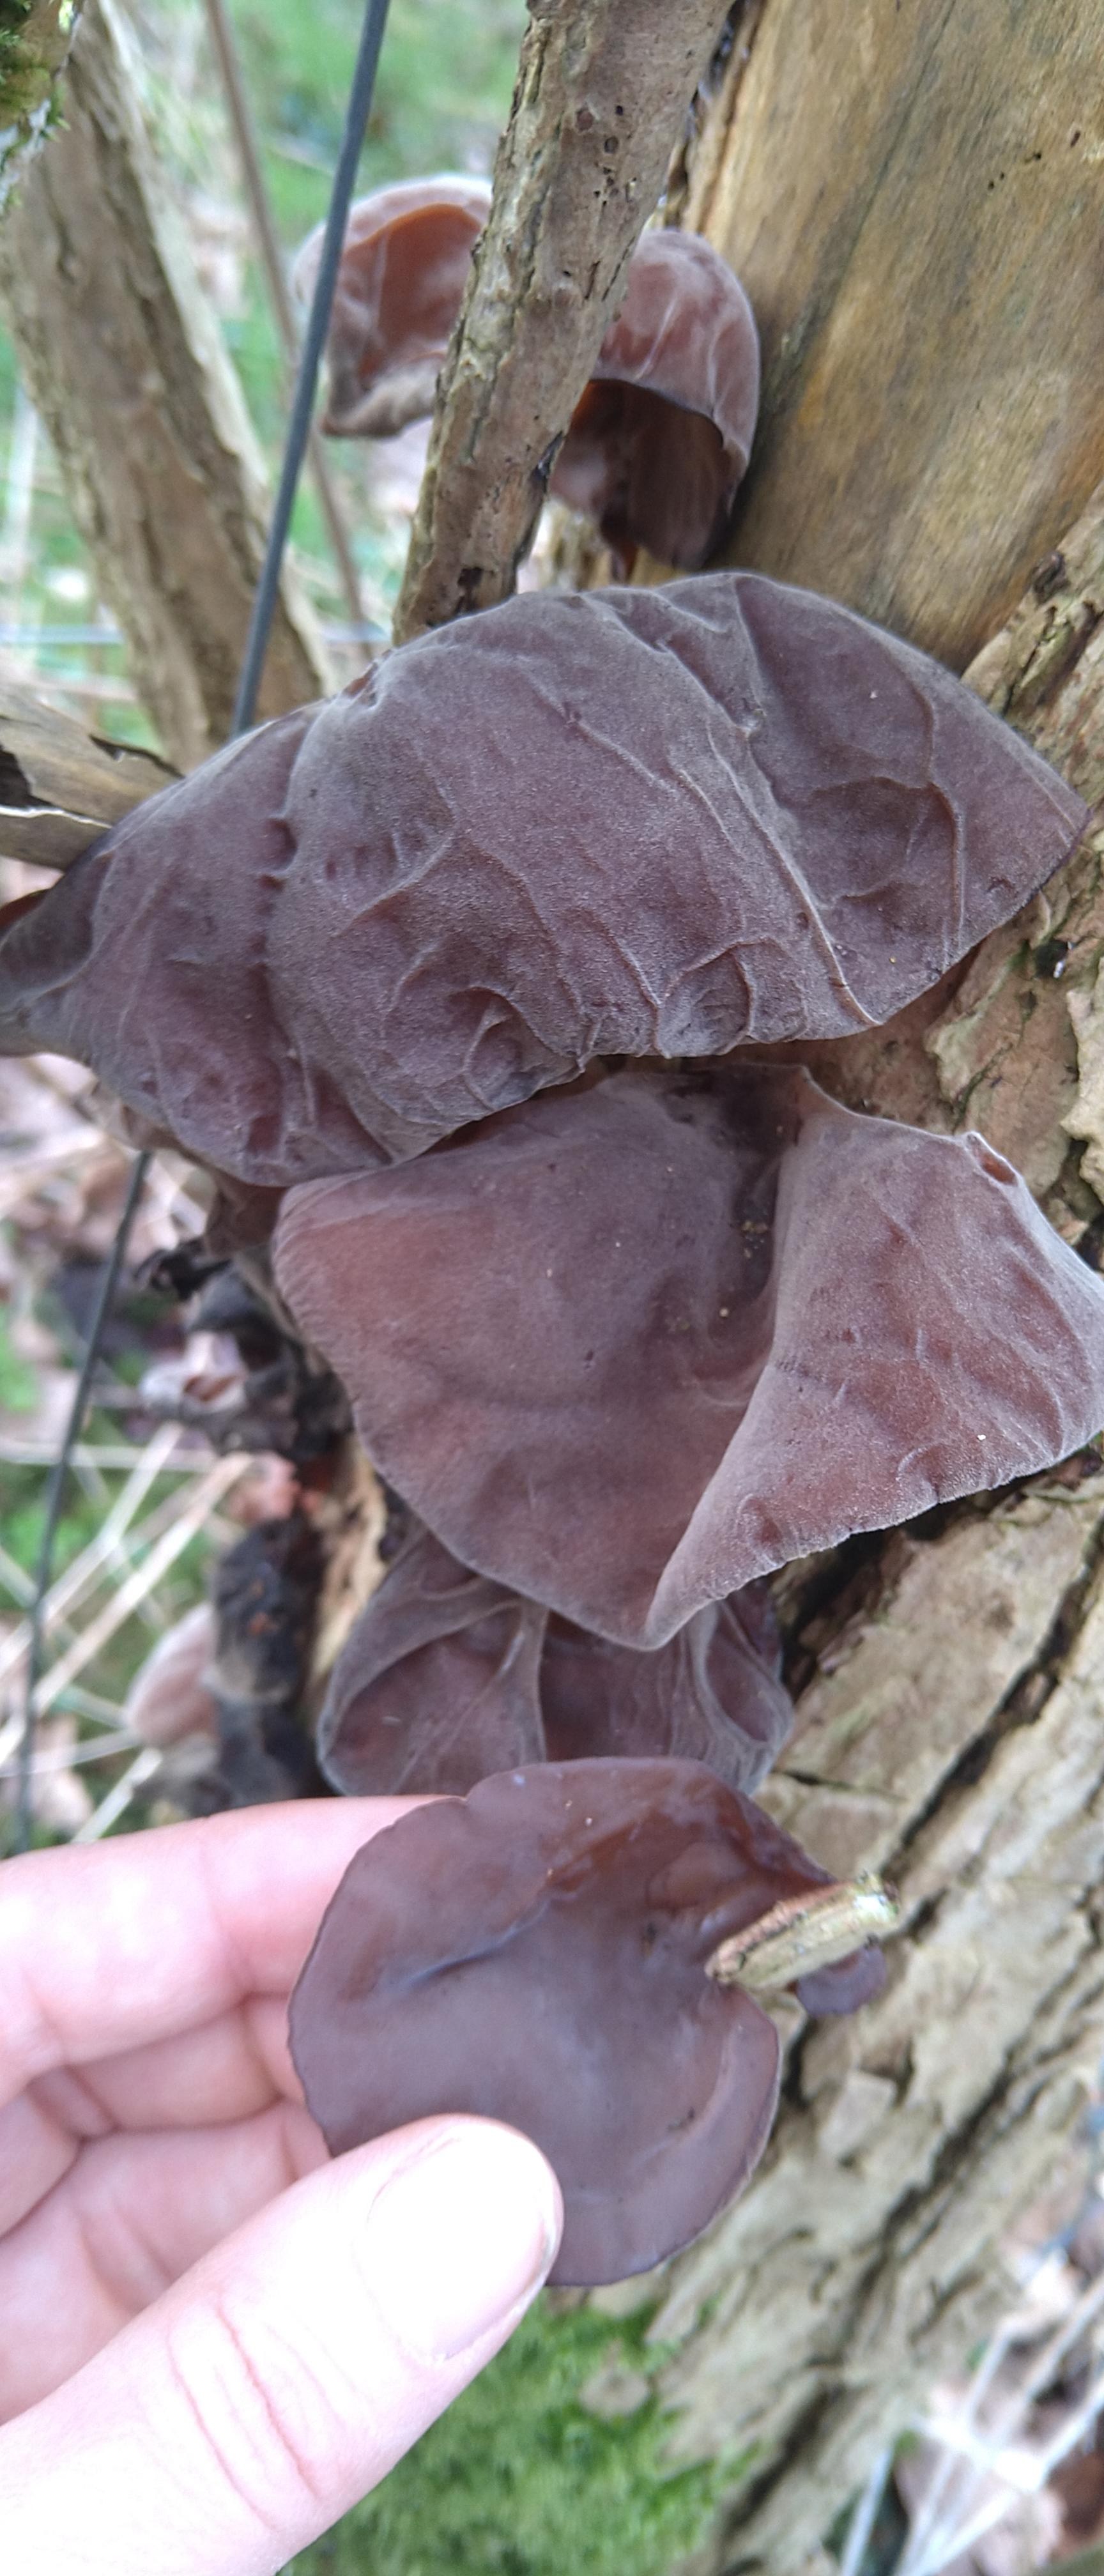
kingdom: Fungi
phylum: Basidiomycota
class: Agaricomycetes
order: Auriculariales
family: Auriculariaceae
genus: Auricularia
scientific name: Auricularia auricula-judae
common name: almindelig judasøre
